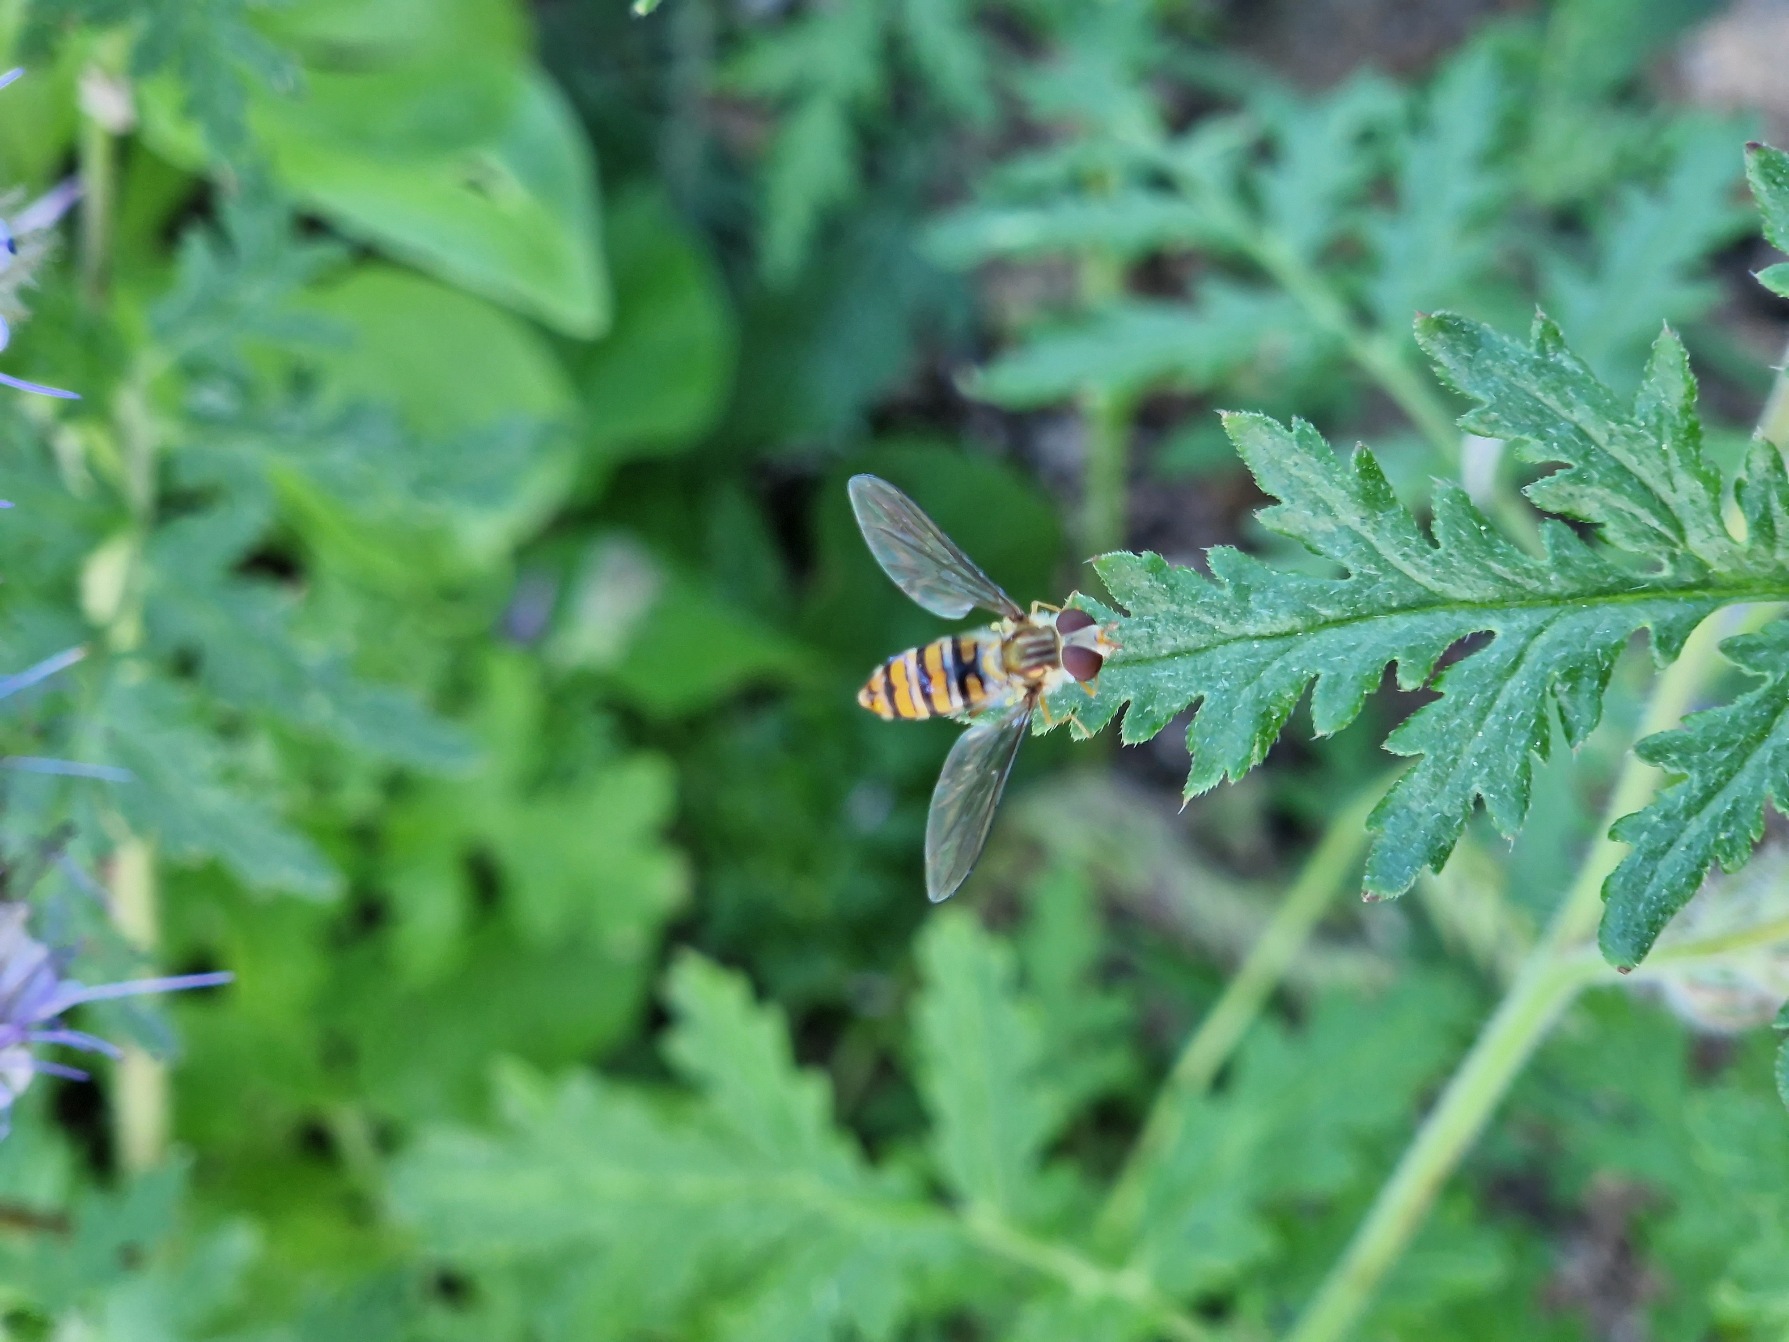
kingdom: Animalia
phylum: Arthropoda
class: Insecta
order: Diptera
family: Syrphidae
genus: Episyrphus
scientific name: Episyrphus balteatus
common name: Dobbeltbåndet svirreflue
